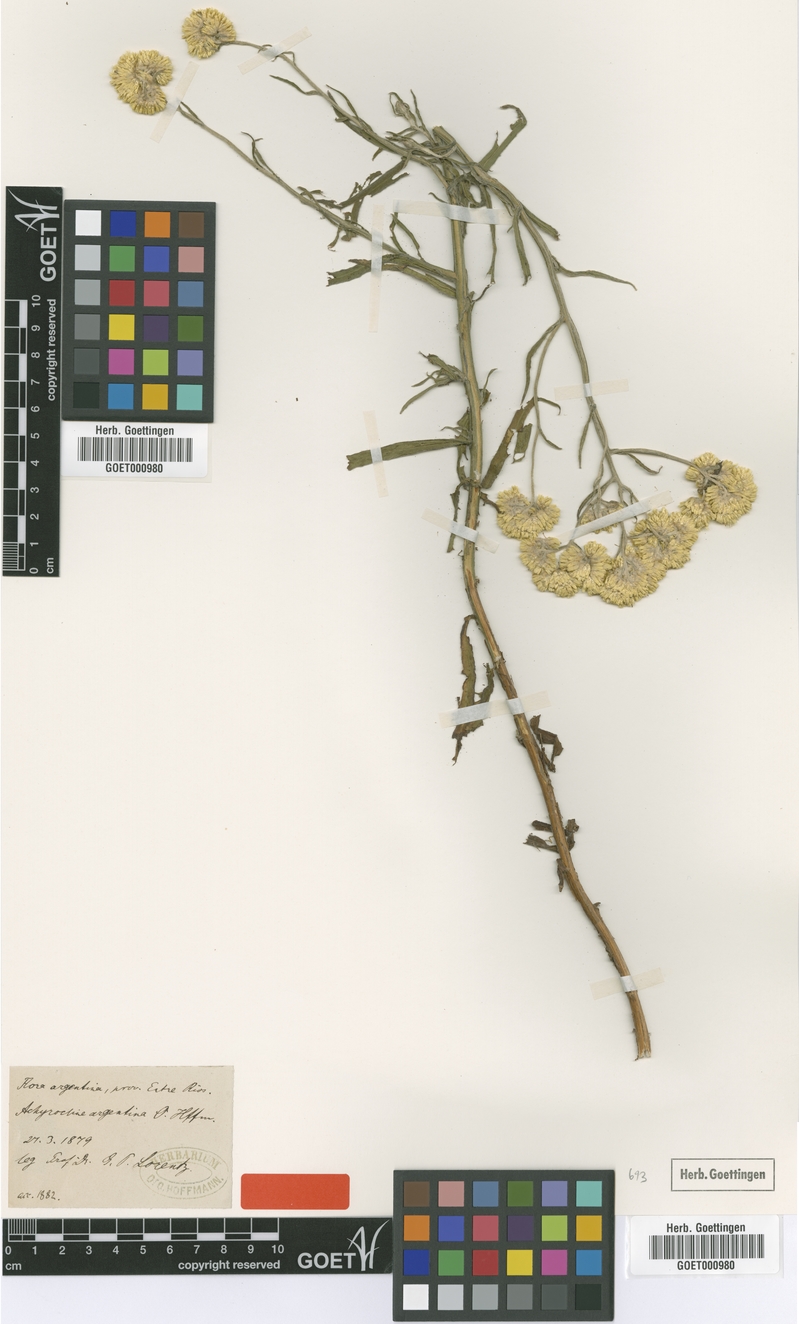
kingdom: Plantae
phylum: Tracheophyta
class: Magnoliopsida
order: Asterales
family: Asteraceae
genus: Achyrocline
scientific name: Achyrocline alata
